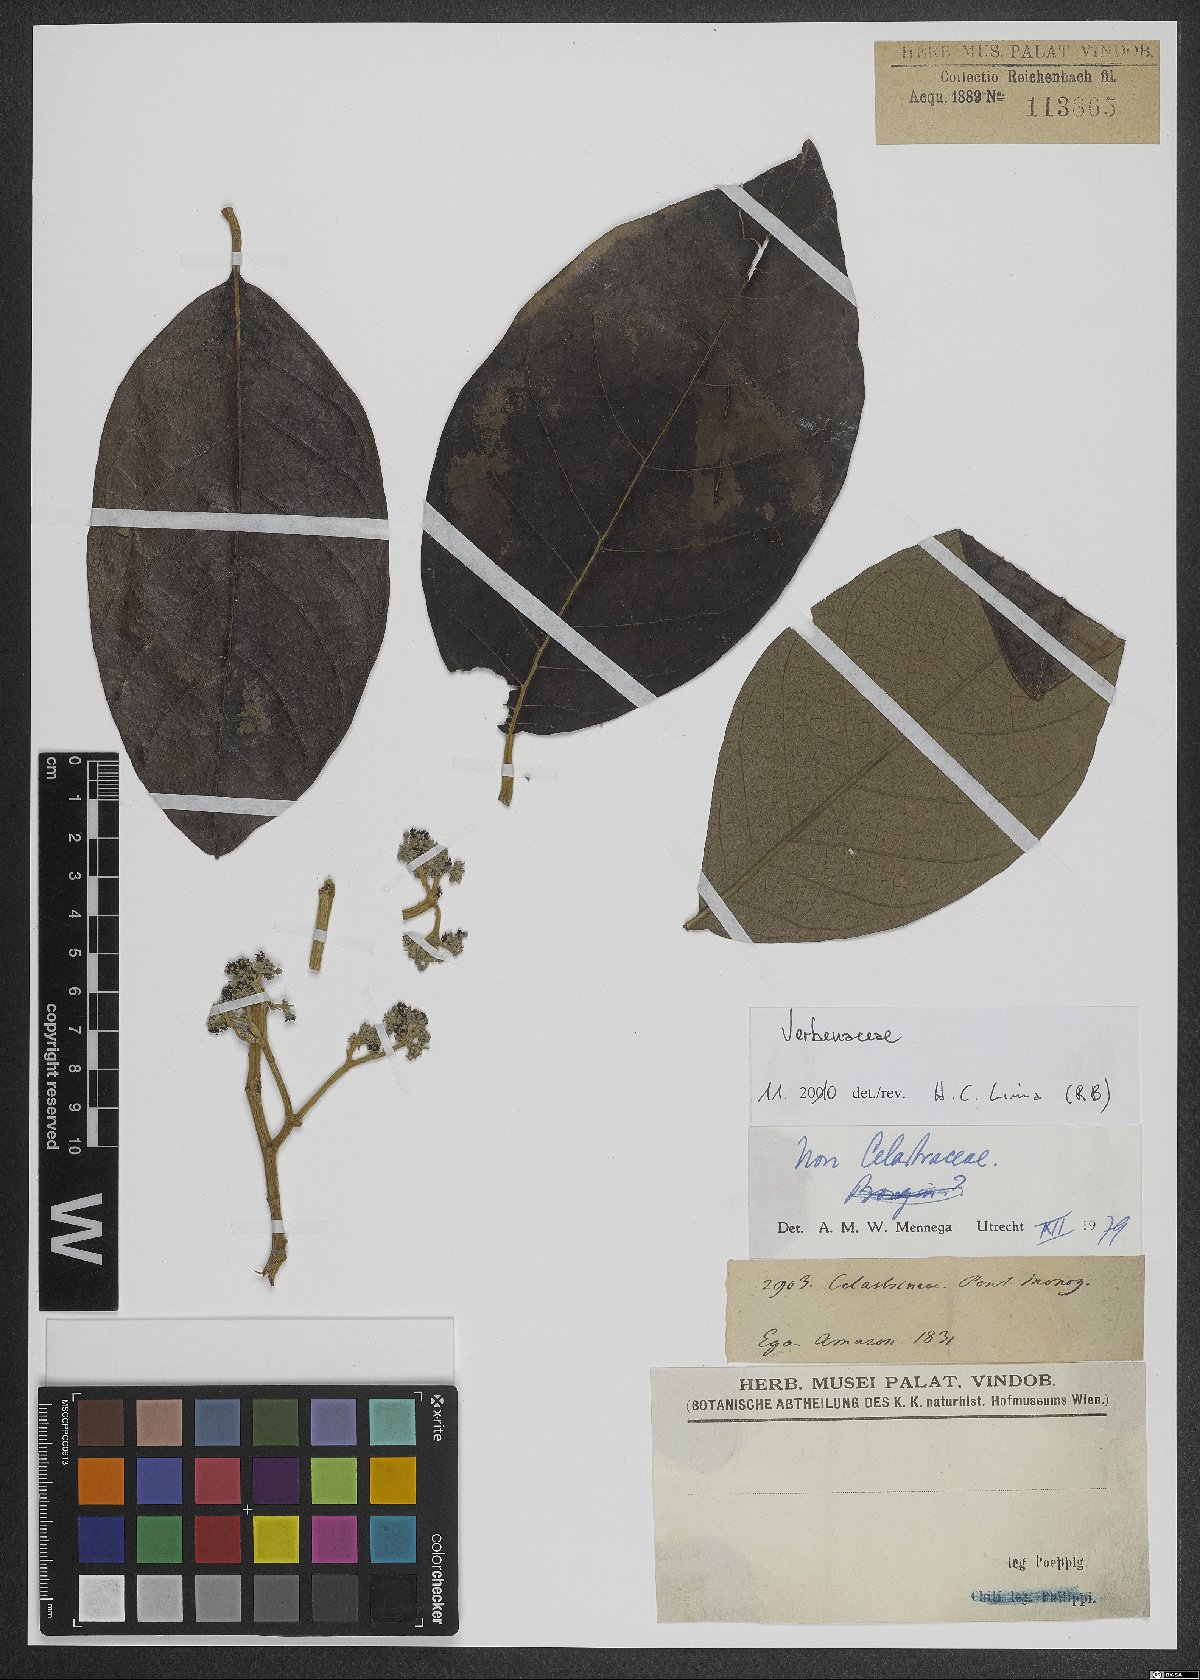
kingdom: Plantae
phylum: Tracheophyta
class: Magnoliopsida
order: Lamiales
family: Verbenaceae
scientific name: Verbenaceae
